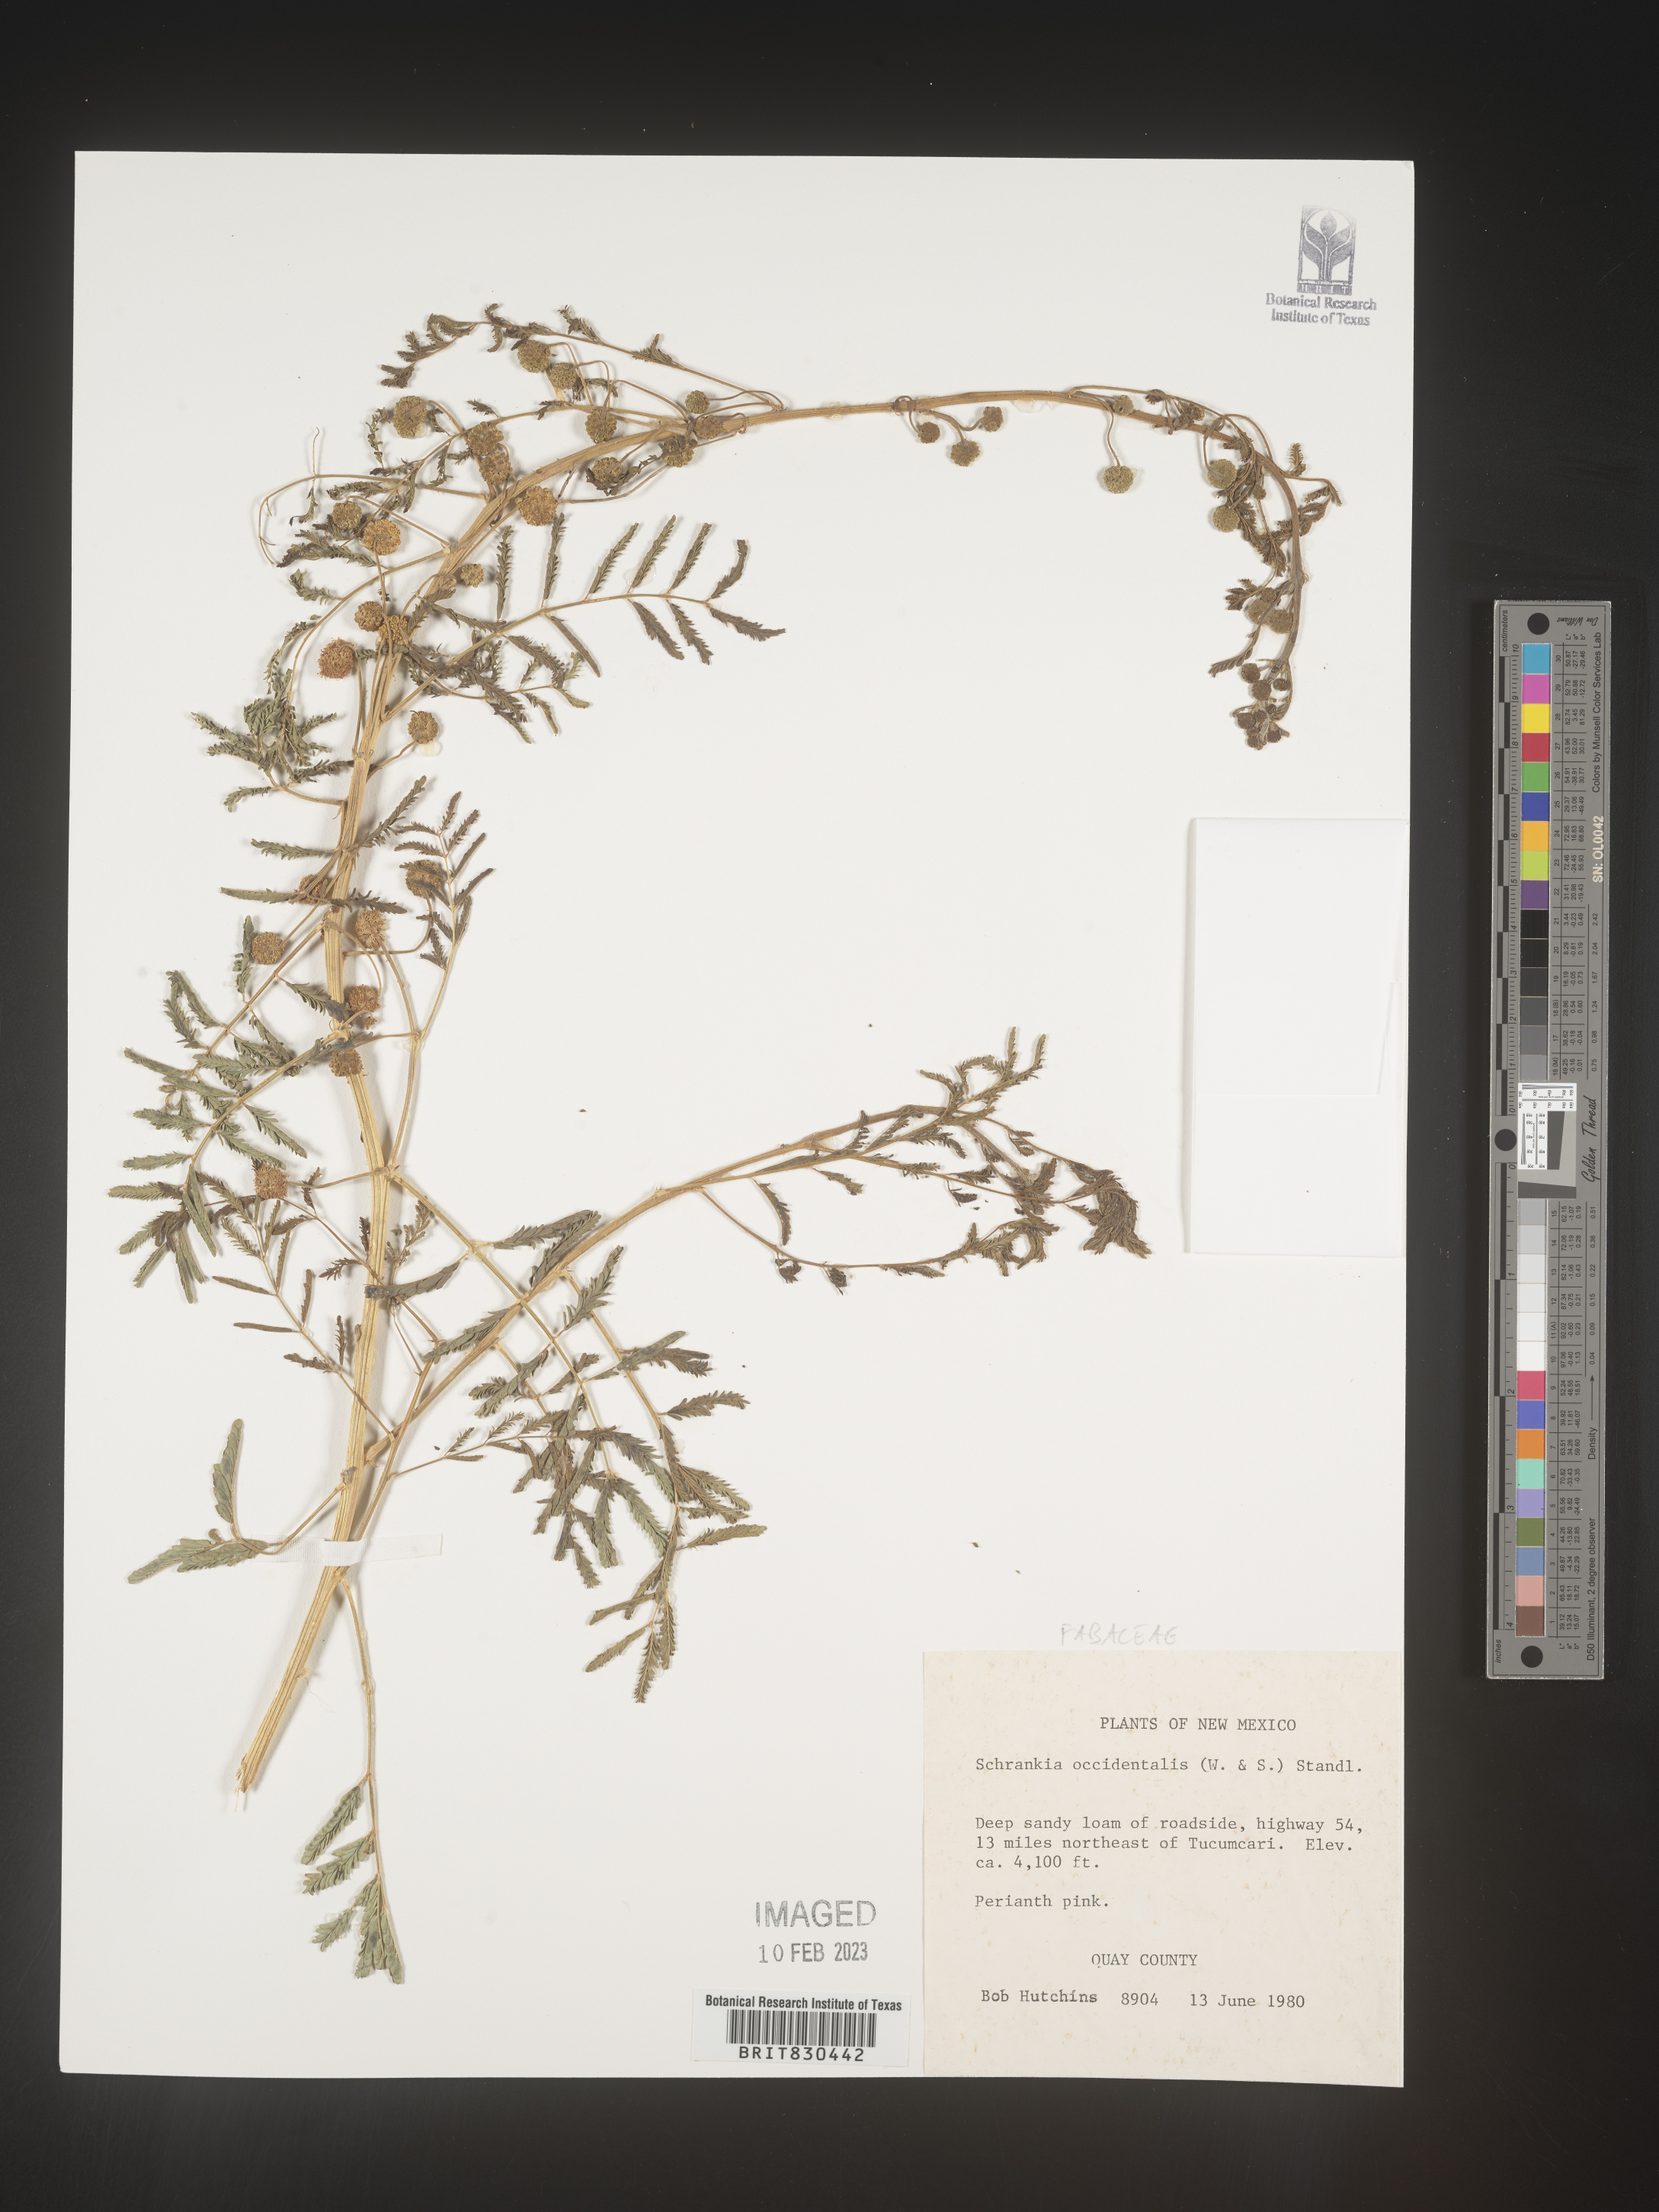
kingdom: Plantae
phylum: Tracheophyta
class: Magnoliopsida
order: Fabales
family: Fabaceae
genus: Mimosa
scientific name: Mimosa
